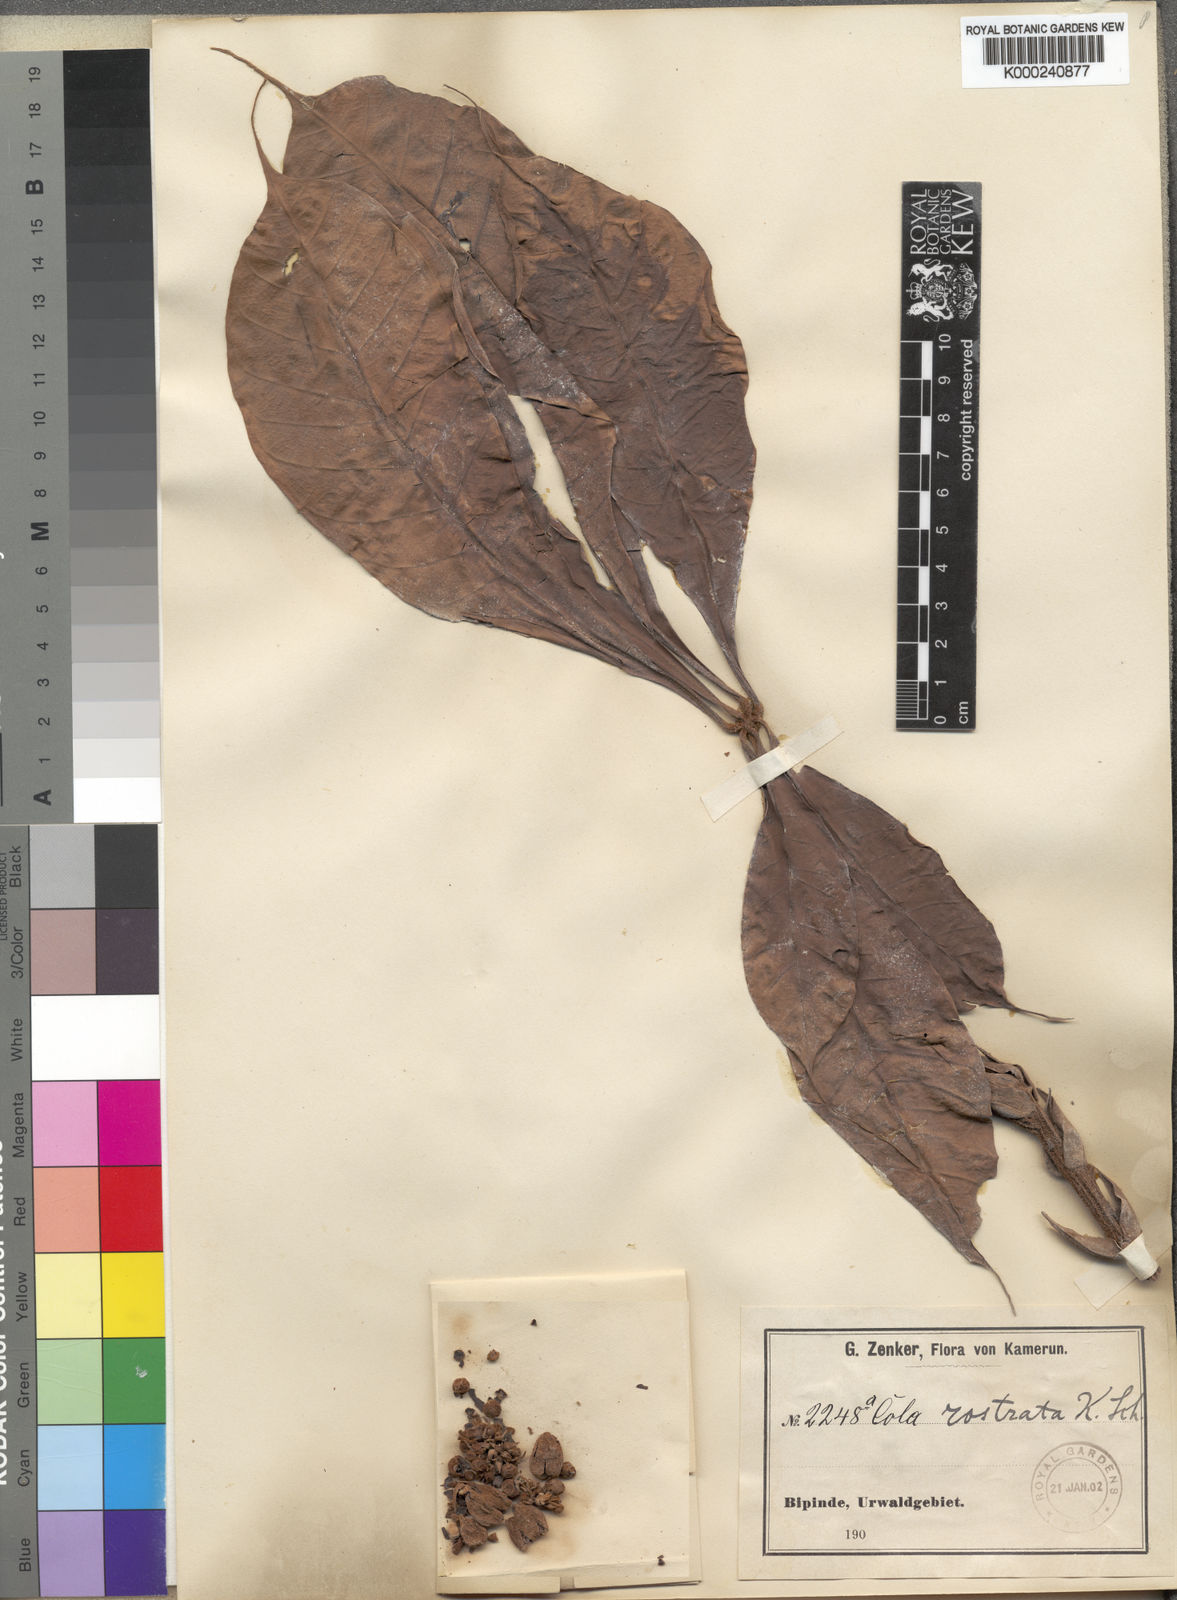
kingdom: Plantae
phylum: Tracheophyta
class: Magnoliopsida
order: Malvales
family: Malvaceae
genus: Cola
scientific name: Cola rostrata
